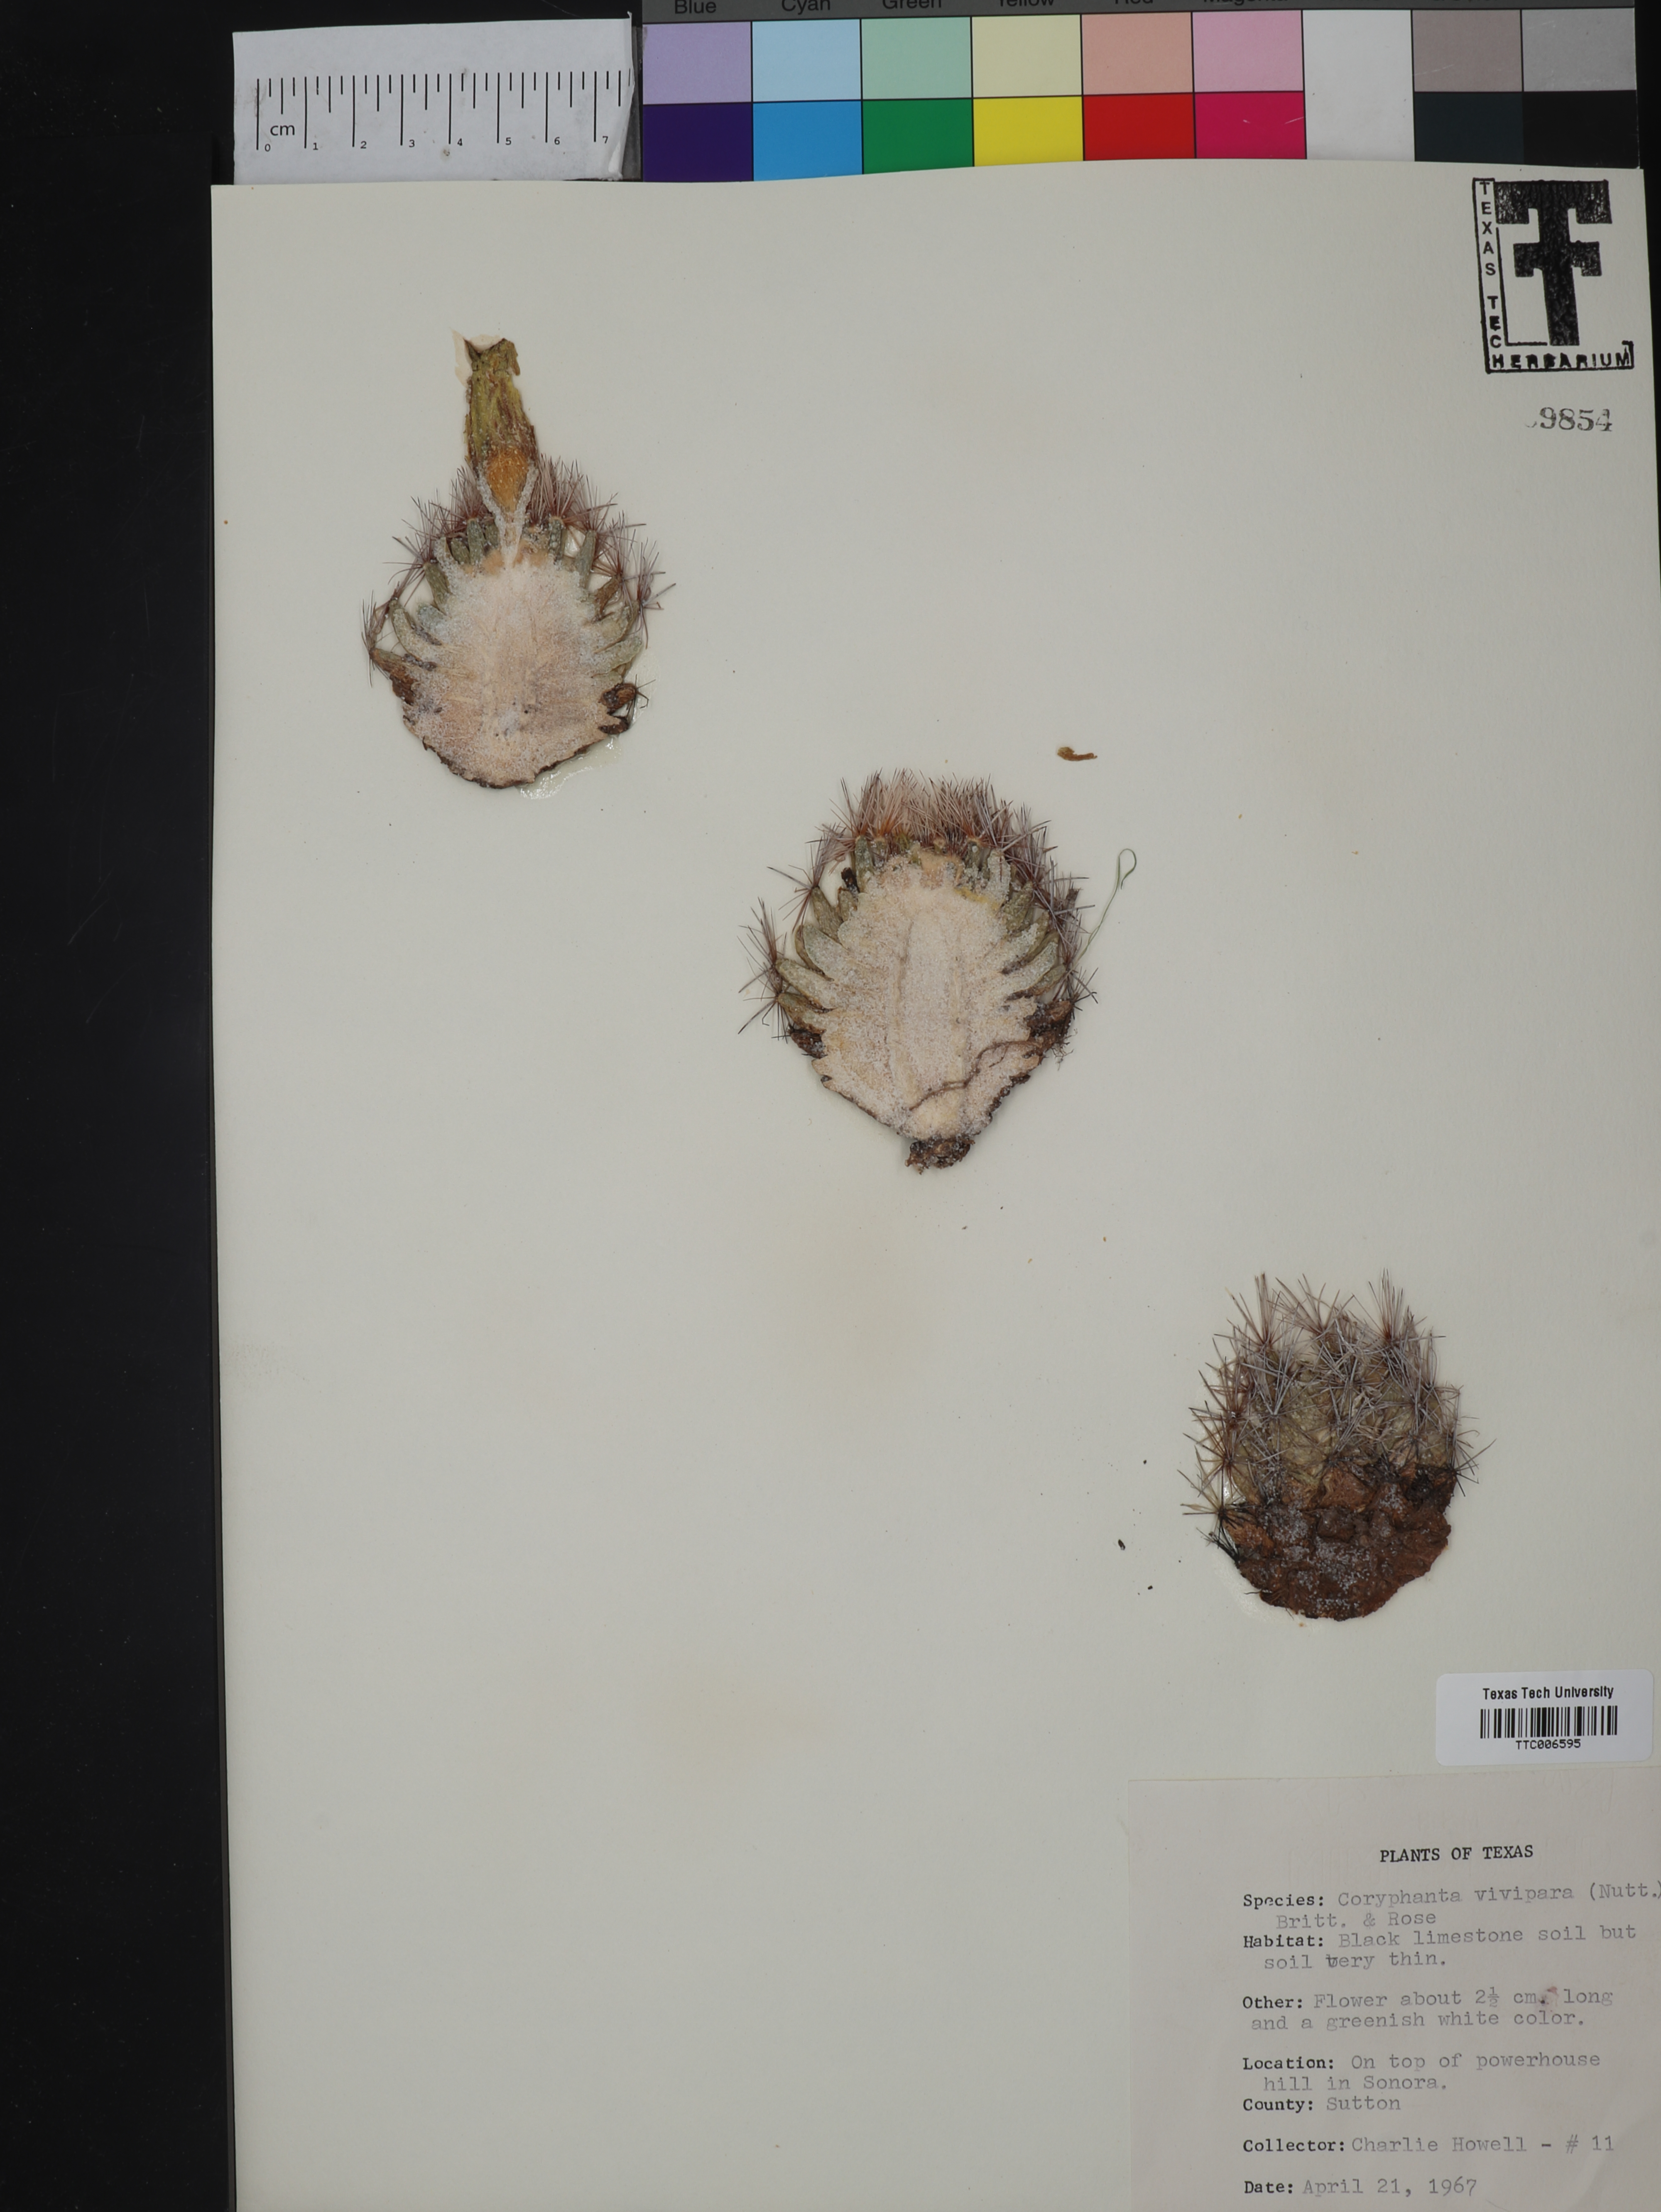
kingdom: Plantae
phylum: Tracheophyta
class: Magnoliopsida
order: Caryophyllales
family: Cactaceae
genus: Pelecyphora
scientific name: Pelecyphora vivipara
